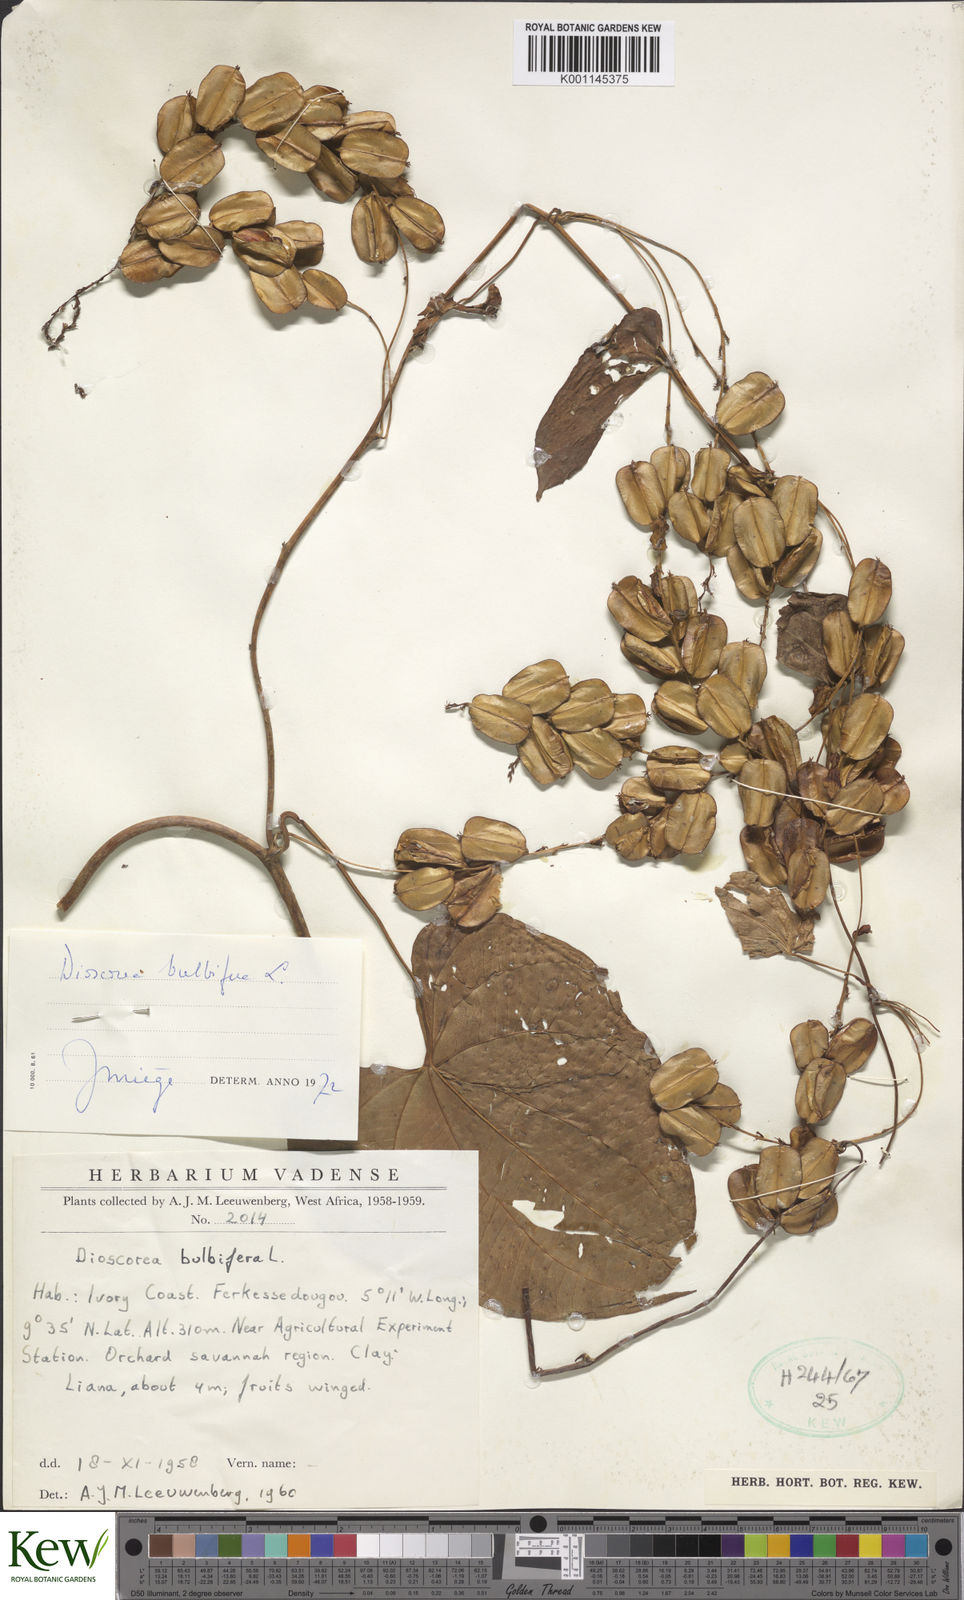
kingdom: Plantae
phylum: Tracheophyta
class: Liliopsida
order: Dioscoreales
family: Dioscoreaceae
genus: Dioscorea
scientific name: Dioscorea bulbifera
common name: Air yam
